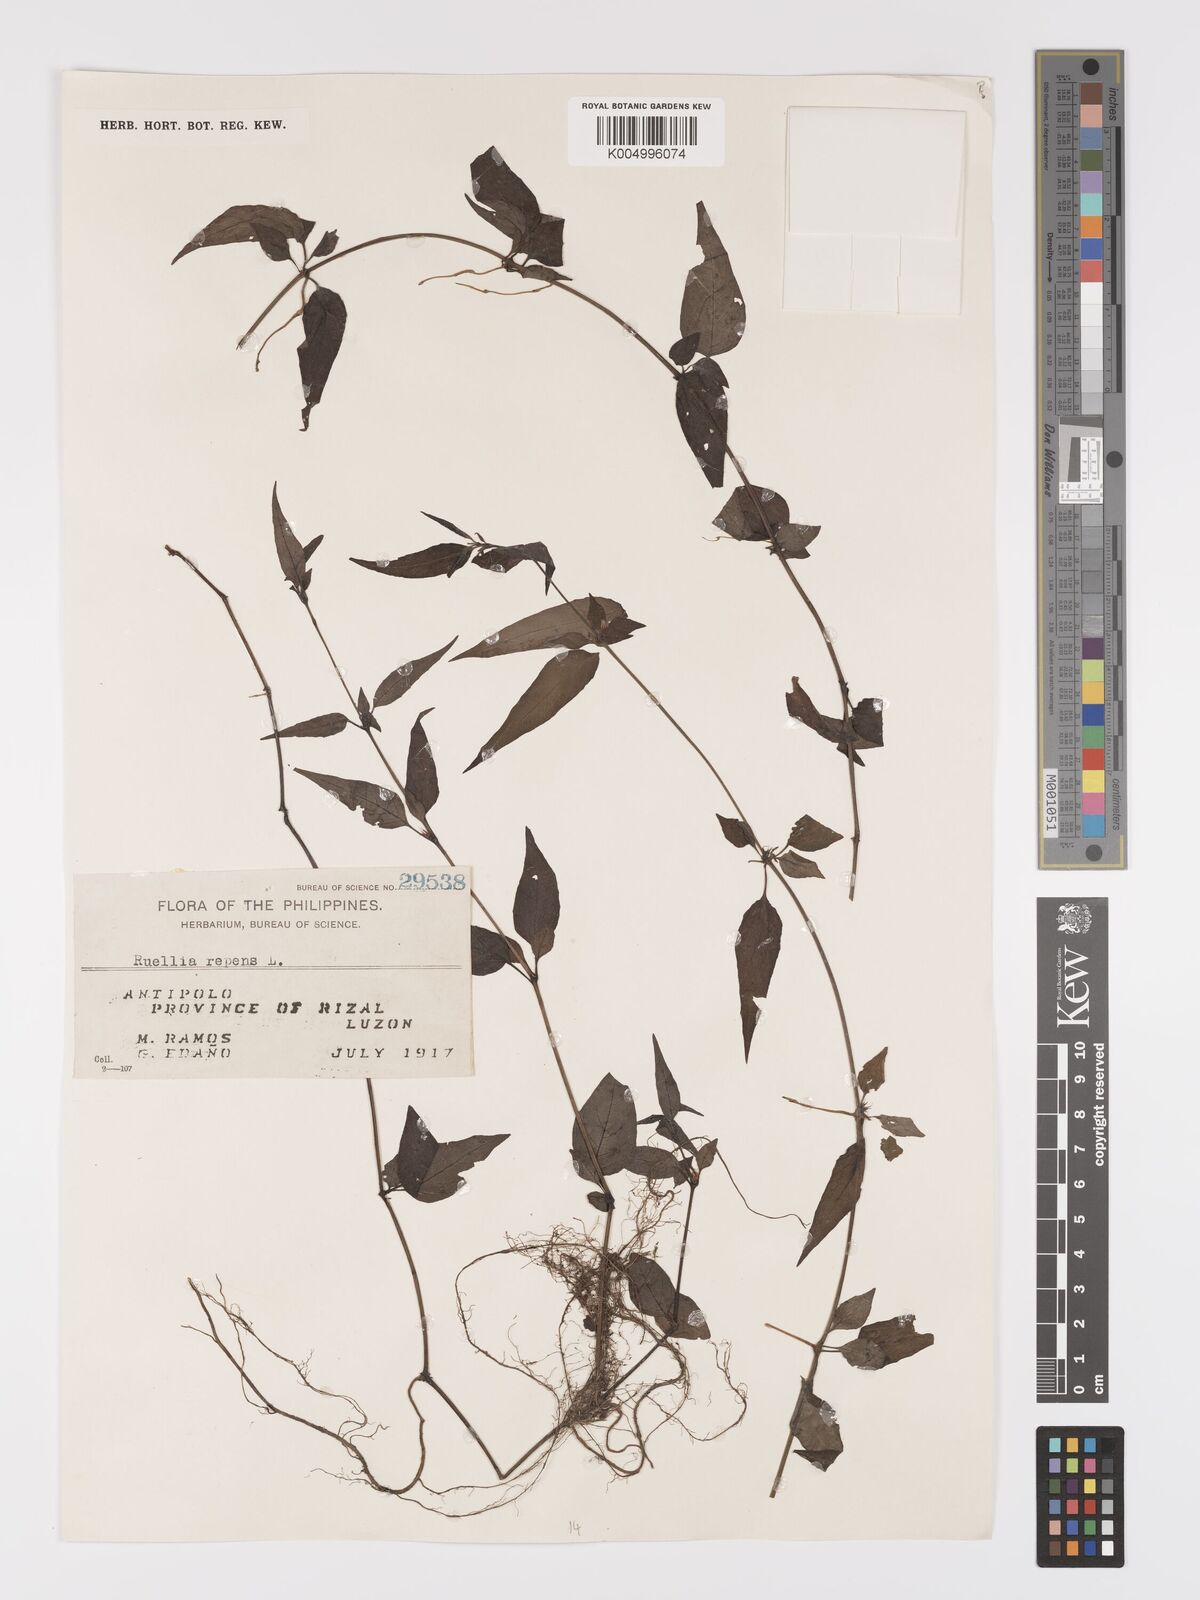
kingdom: Plantae
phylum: Tracheophyta
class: Magnoliopsida
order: Lamiales
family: Acanthaceae
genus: Ruellia
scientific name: Ruellia
